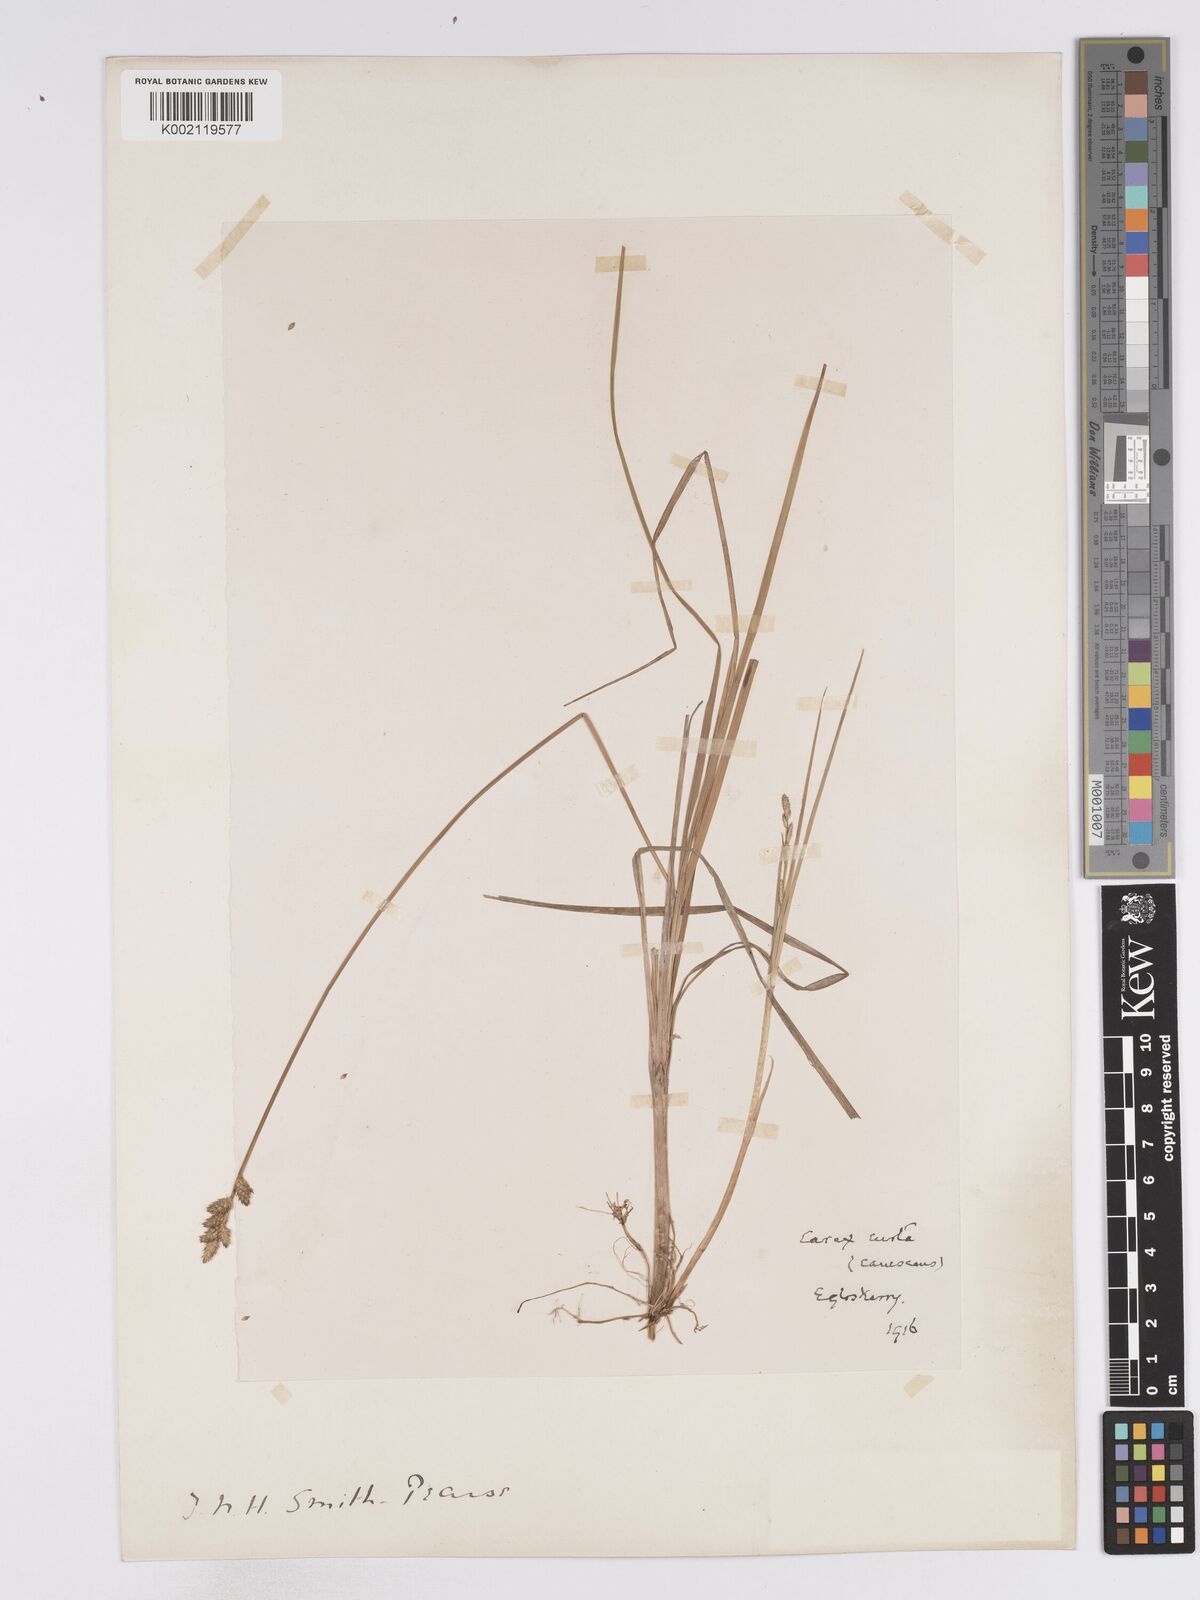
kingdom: Plantae
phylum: Tracheophyta
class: Liliopsida
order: Poales
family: Cyperaceae
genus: Carex
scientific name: Carex curta
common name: White sedge
